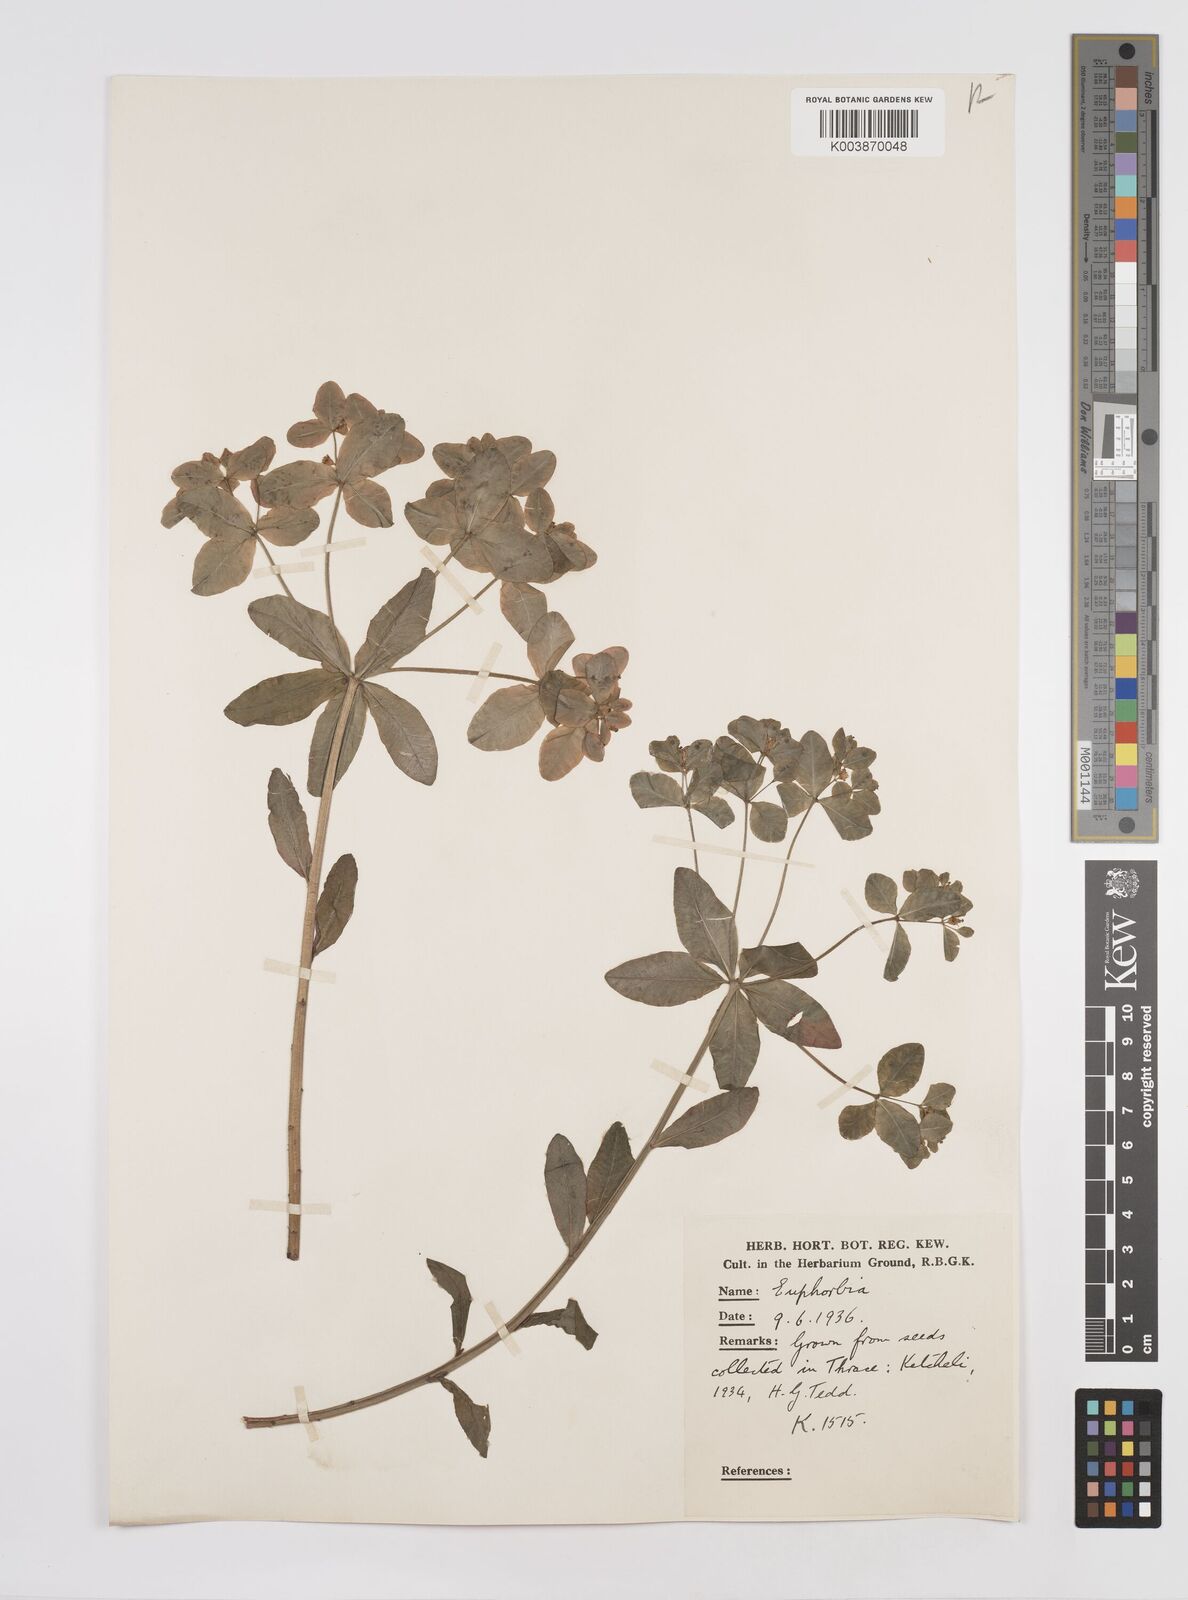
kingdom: Plantae
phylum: Tracheophyta
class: Magnoliopsida
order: Malpighiales
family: Euphorbiaceae
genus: Euphorbia
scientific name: Euphorbia epithymoides
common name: Cushion spurge
